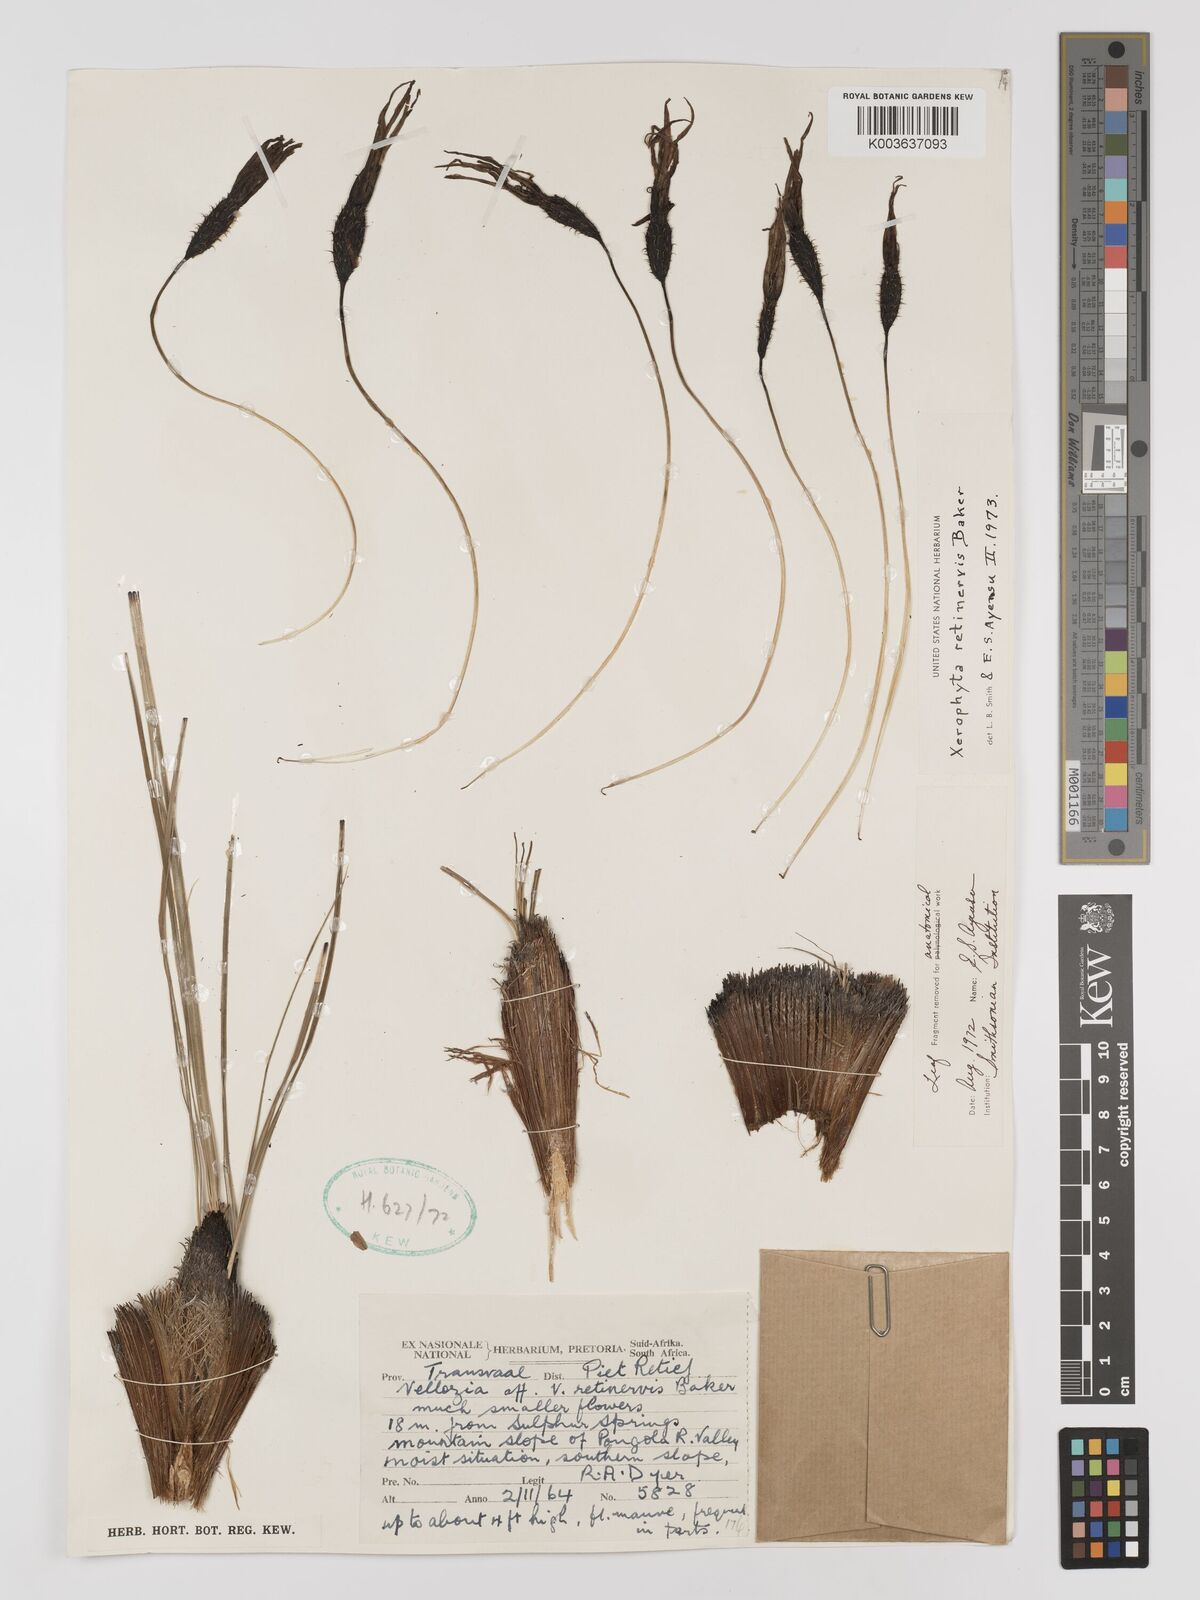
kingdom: Plantae
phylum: Tracheophyta
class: Liliopsida
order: Pandanales
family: Velloziaceae
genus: Xerophyta
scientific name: Xerophyta retinervis
